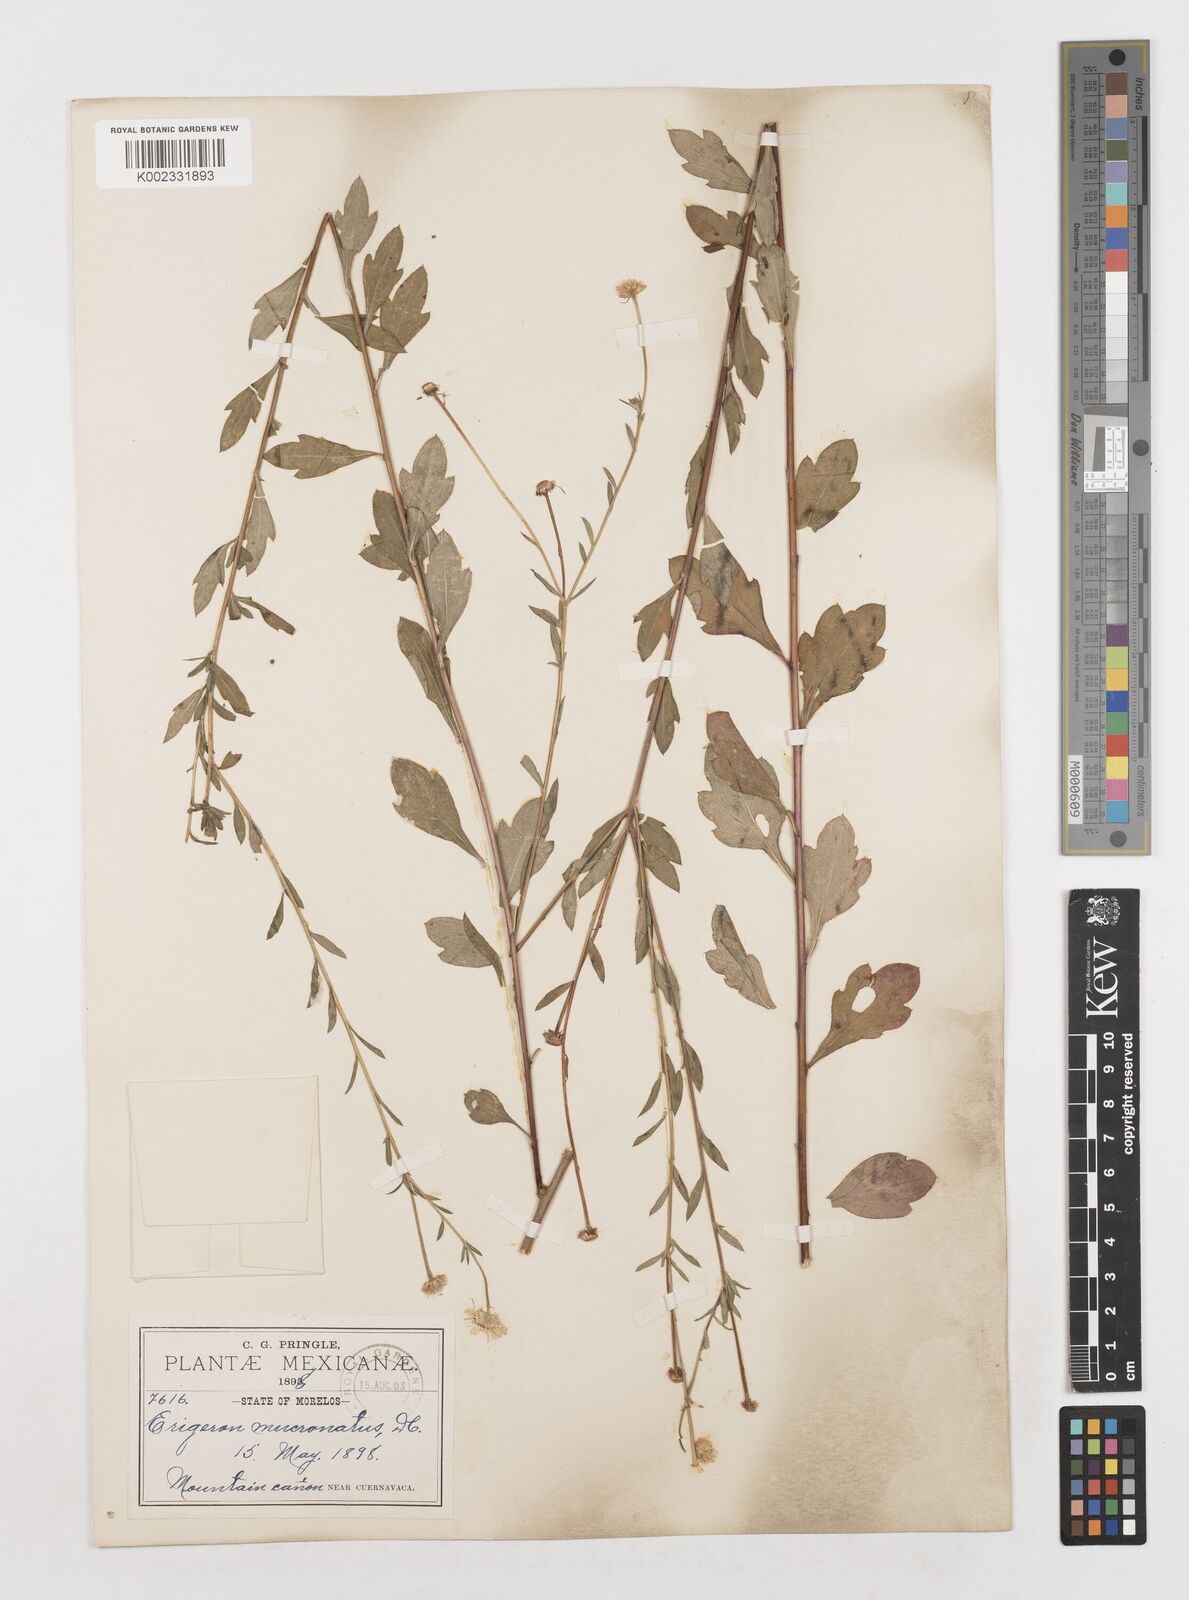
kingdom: Plantae
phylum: Tracheophyta
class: Magnoliopsida
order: Asterales
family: Asteraceae
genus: Erigeron
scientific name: Erigeron
